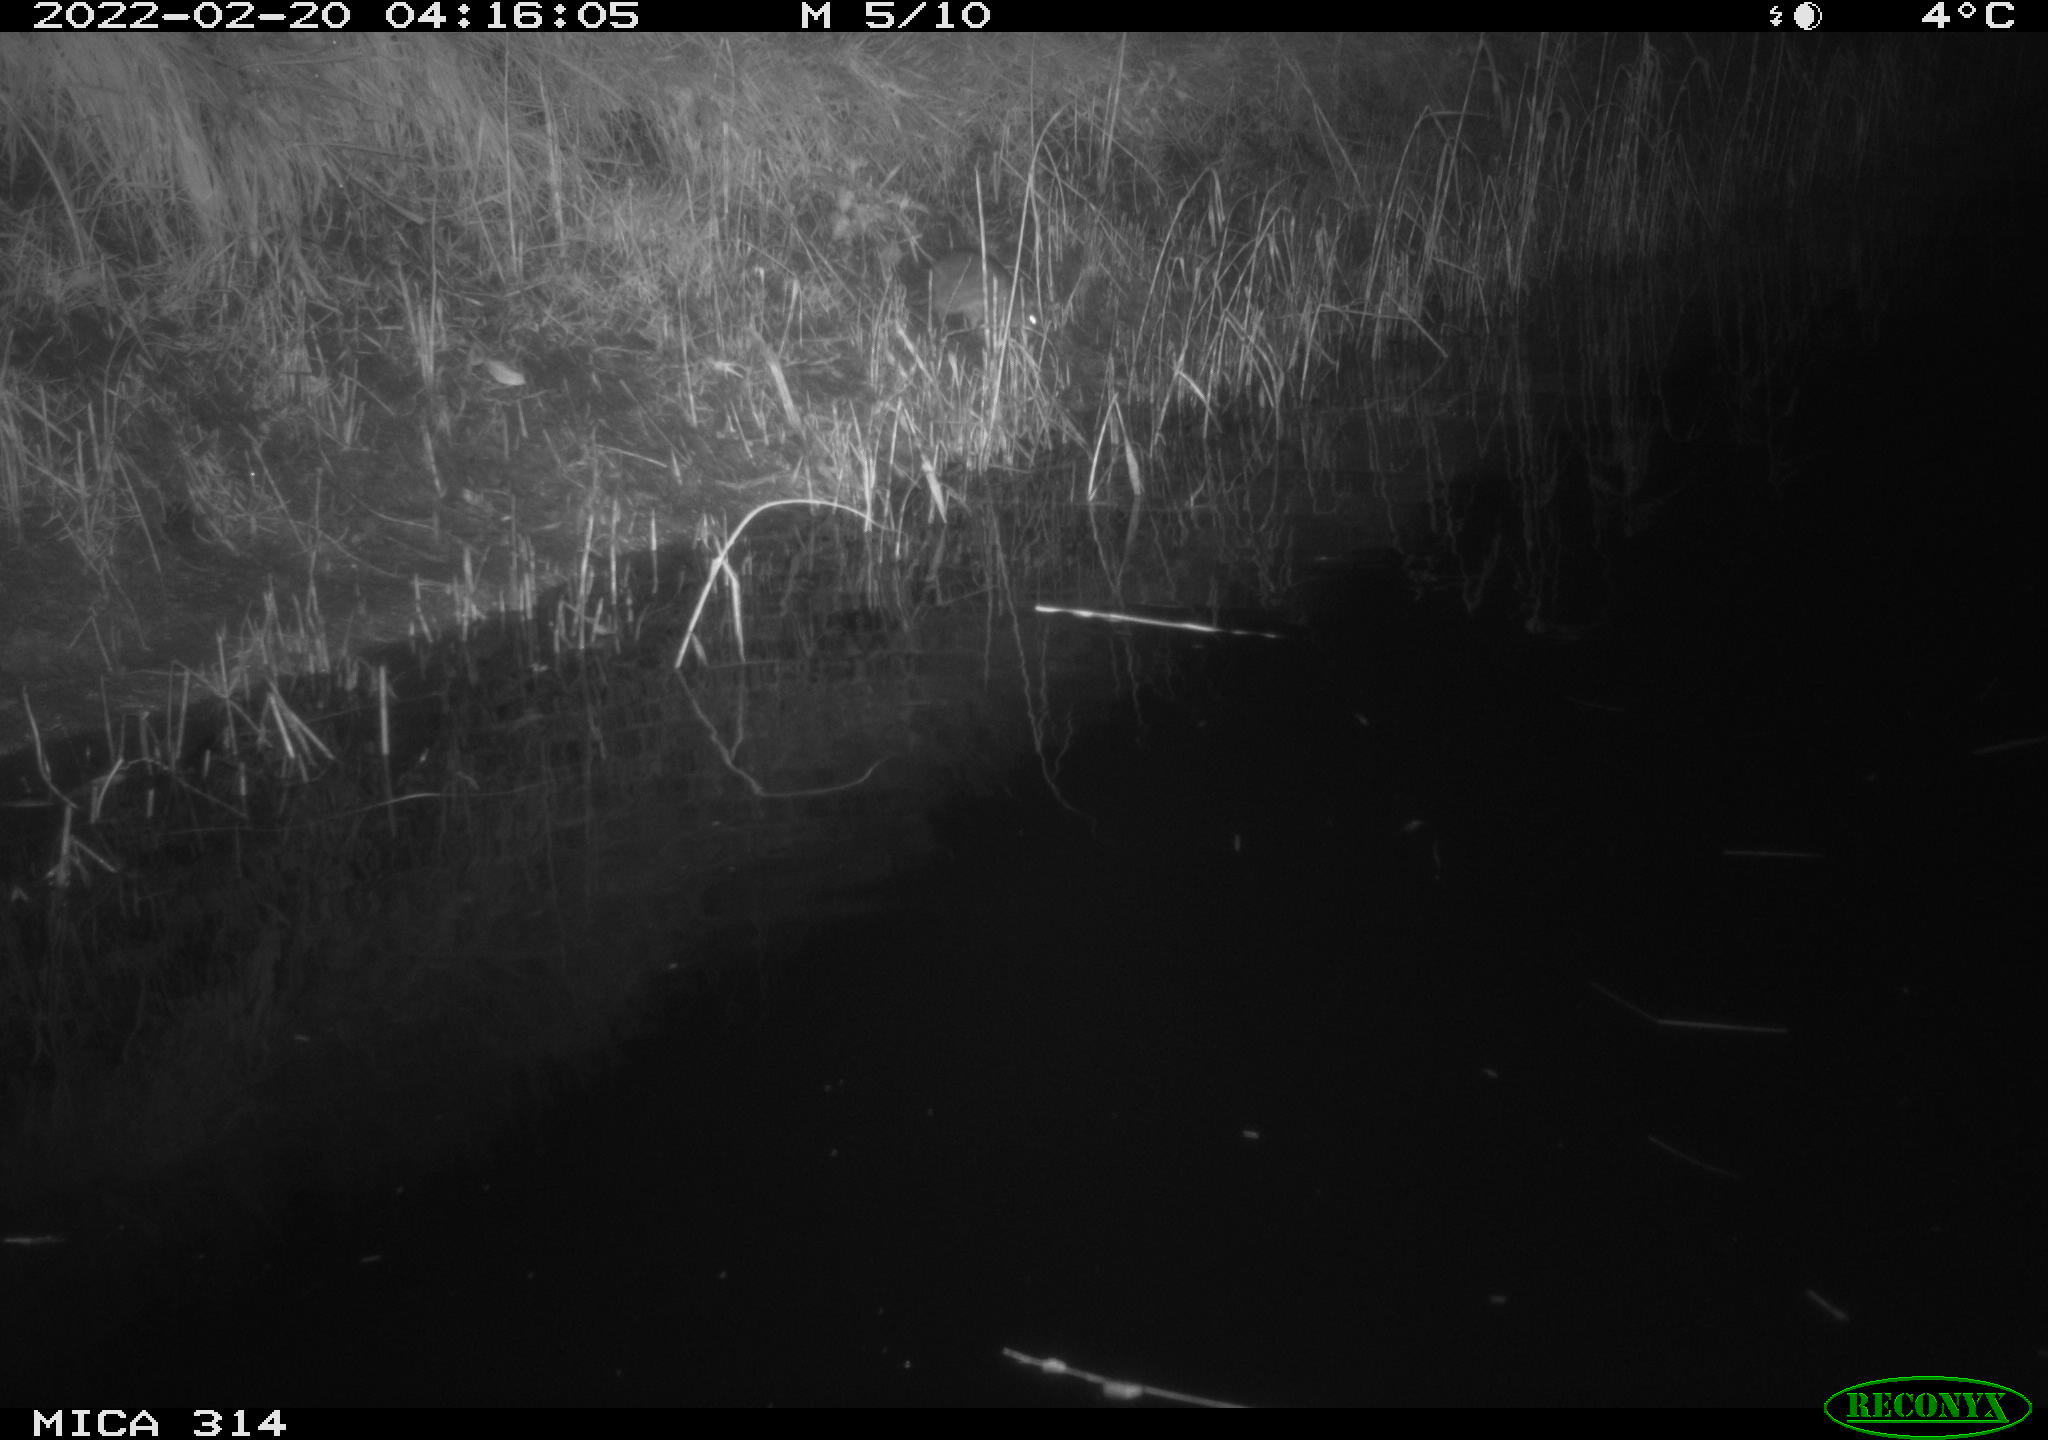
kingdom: Animalia
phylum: Chordata
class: Mammalia
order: Rodentia
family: Muridae
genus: Rattus
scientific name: Rattus norvegicus
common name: Brown rat
